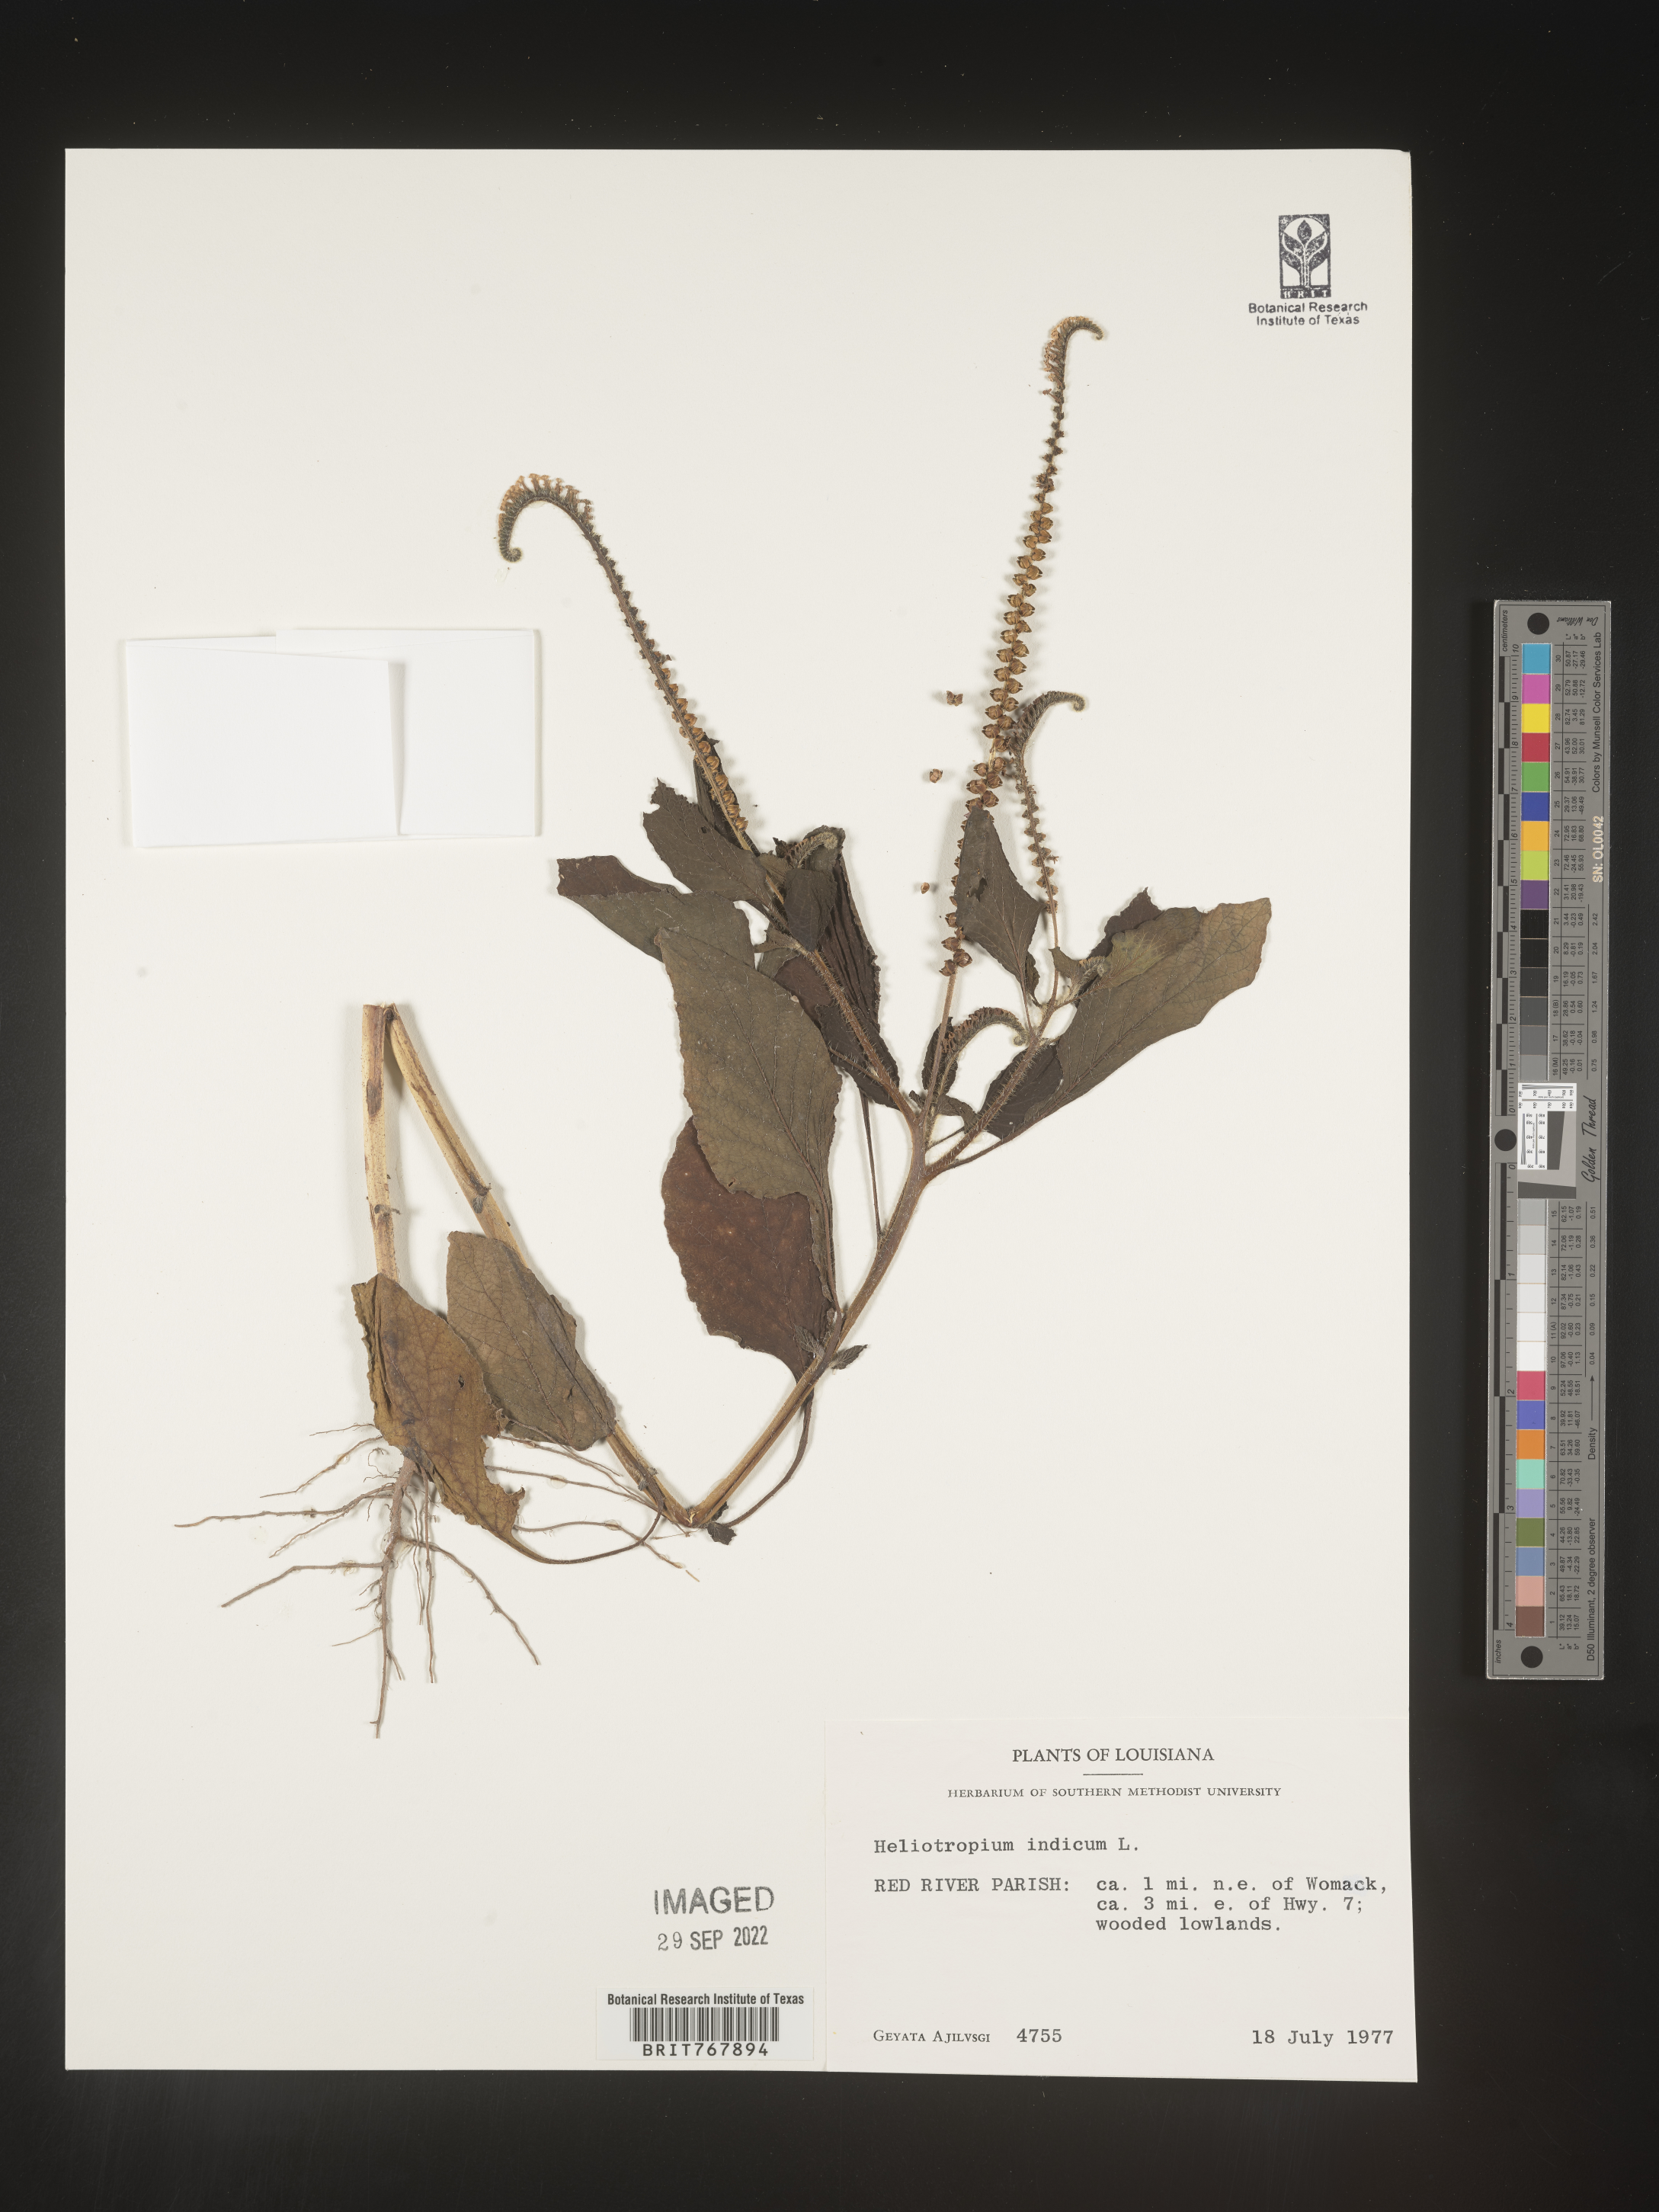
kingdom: Plantae
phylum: Tracheophyta
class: Magnoliopsida
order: Boraginales
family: Heliotropiaceae
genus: Heliotropium
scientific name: Heliotropium indicum
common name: Indian heliotrope
